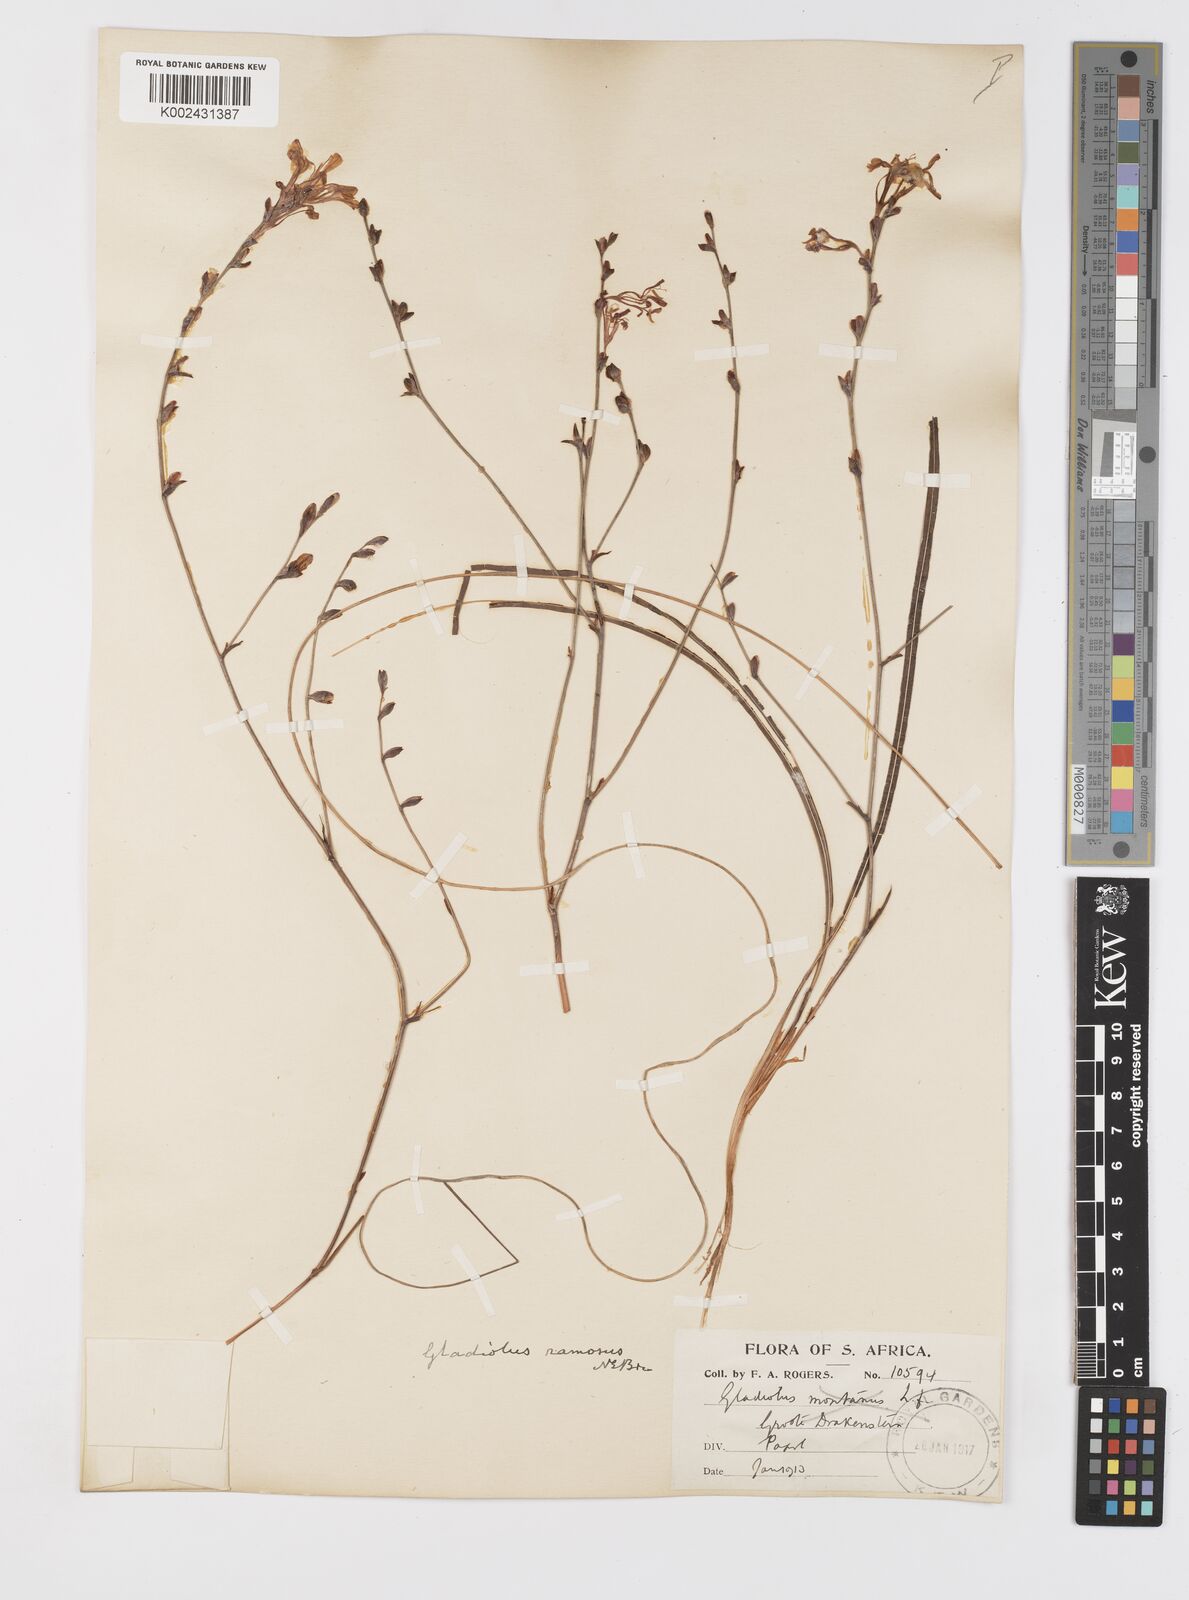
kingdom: Plantae
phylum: Tracheophyta
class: Liliopsida
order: Asparagales
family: Iridaceae
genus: Tritoniopsis
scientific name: Tritoniopsis ramosa
